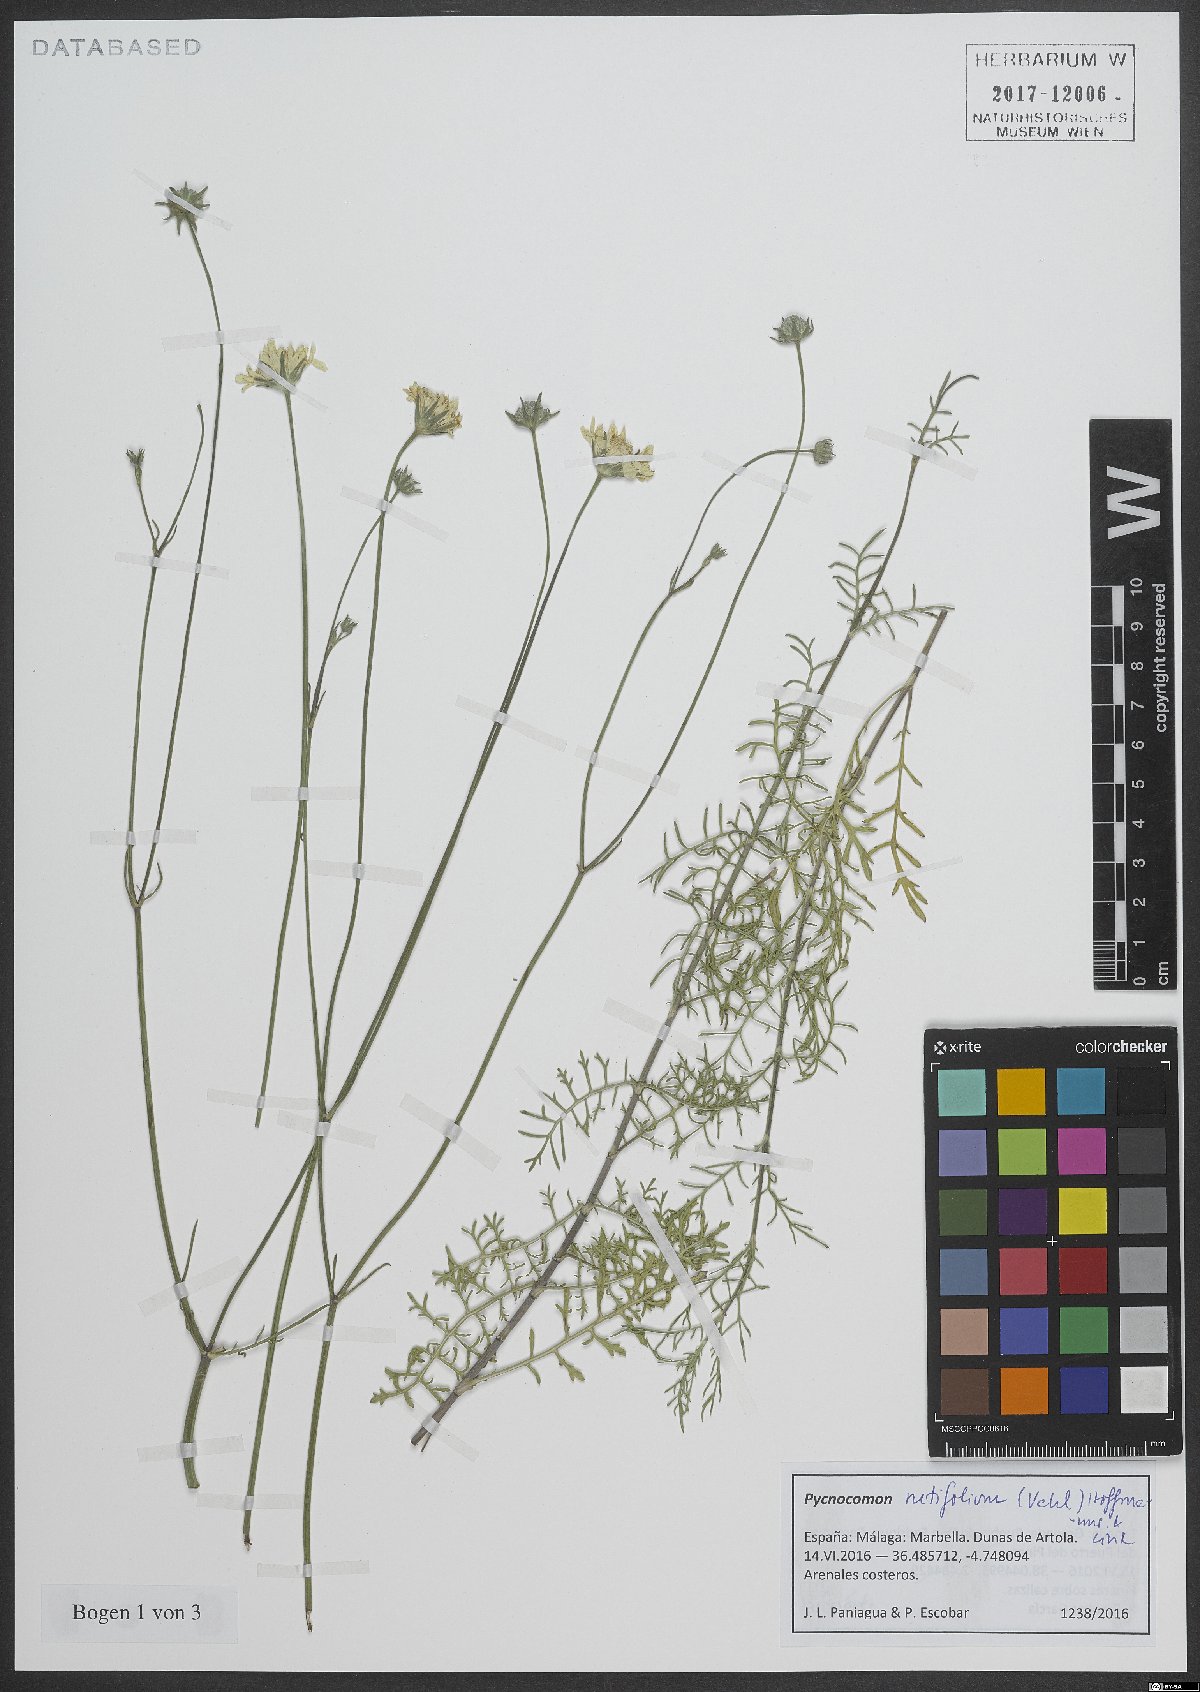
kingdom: Plantae
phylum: Tracheophyta
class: Magnoliopsida
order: Dipsacales
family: Caprifoliaceae
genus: Pycnocomon
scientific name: Pycnocomon rutifolium
